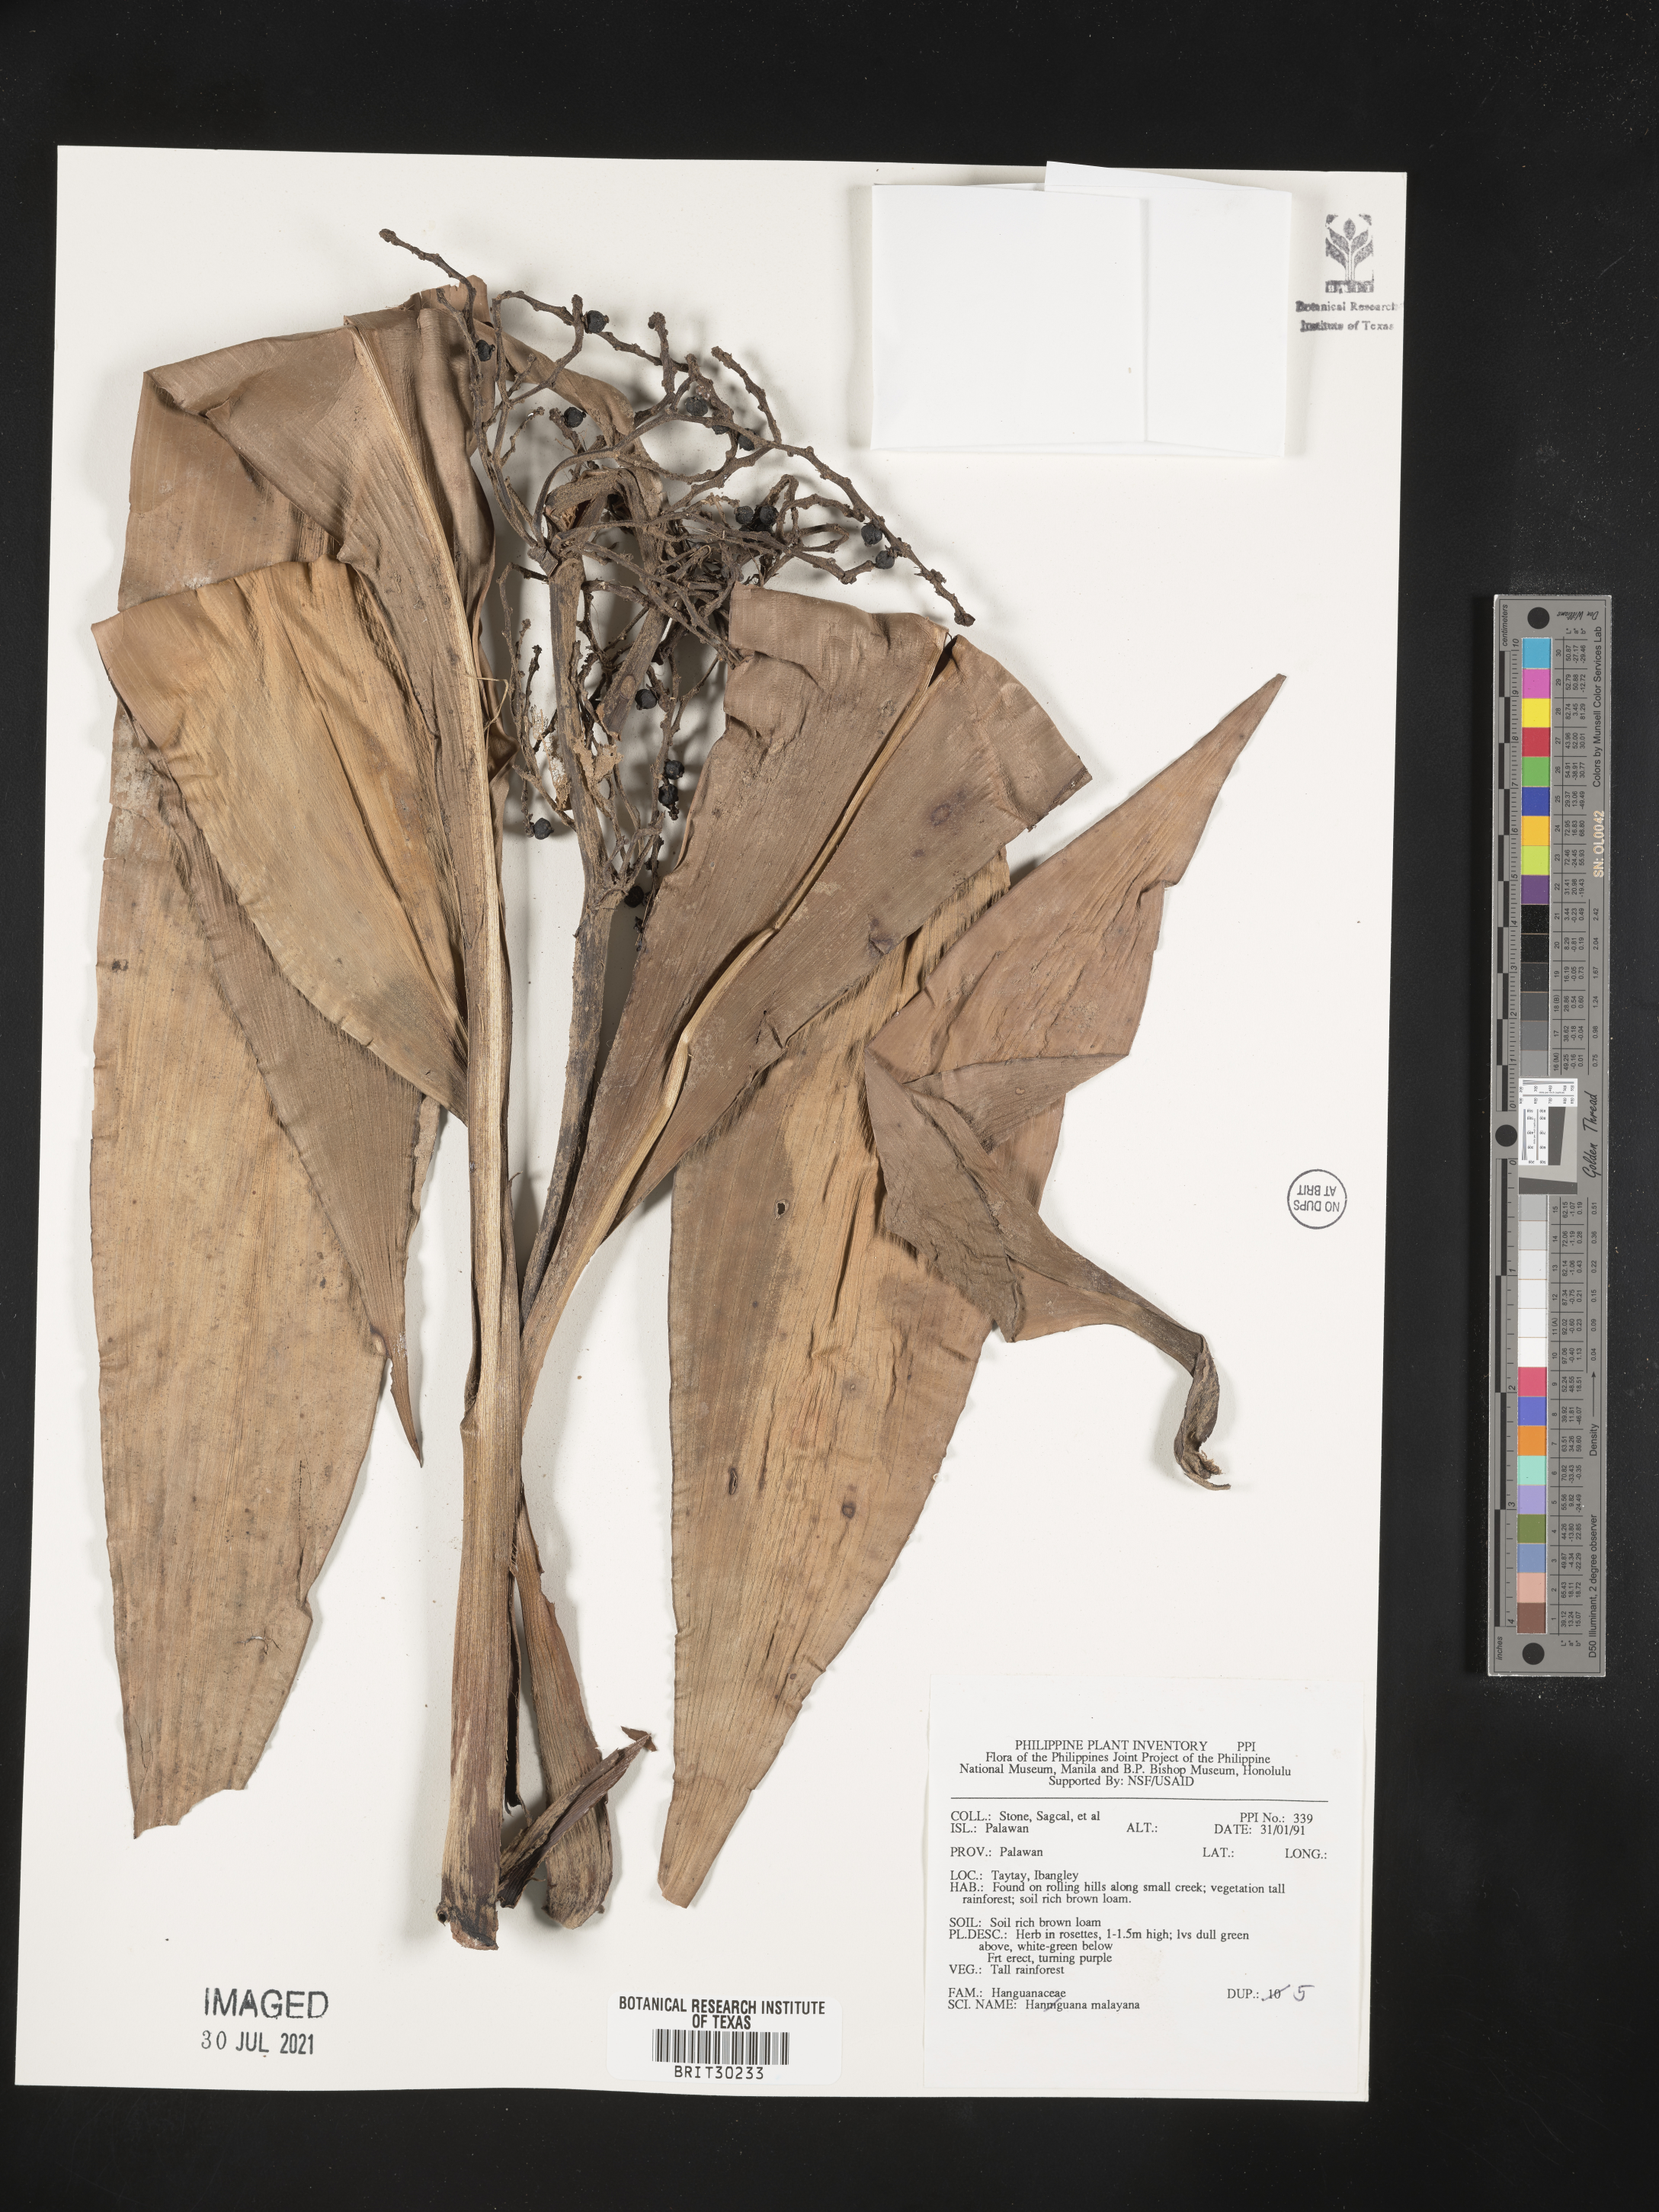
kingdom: Plantae
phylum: Tracheophyta
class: Liliopsida
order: Commelinales
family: Hanguanaceae
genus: Hanguana
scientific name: Hanguana malayana
